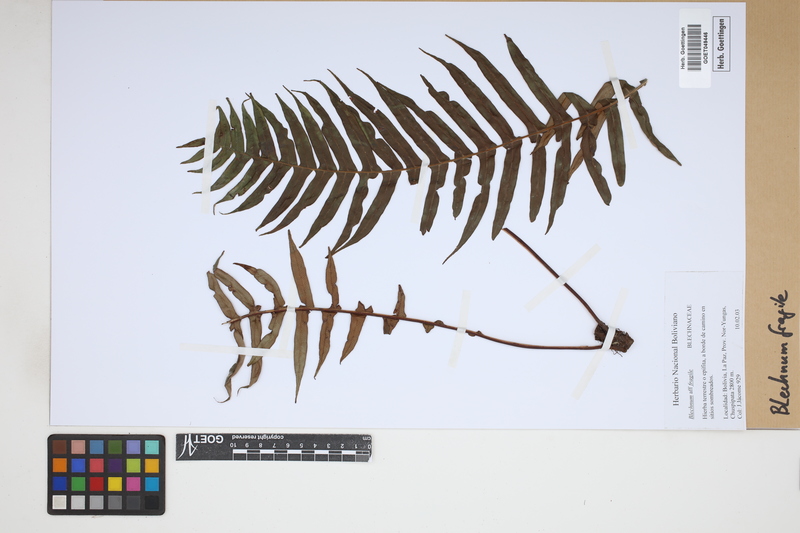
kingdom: Plantae
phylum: Tracheophyta
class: Polypodiopsida
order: Polypodiales
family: Blechnaceae
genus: Lomaridium
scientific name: Lomaridium fragile
